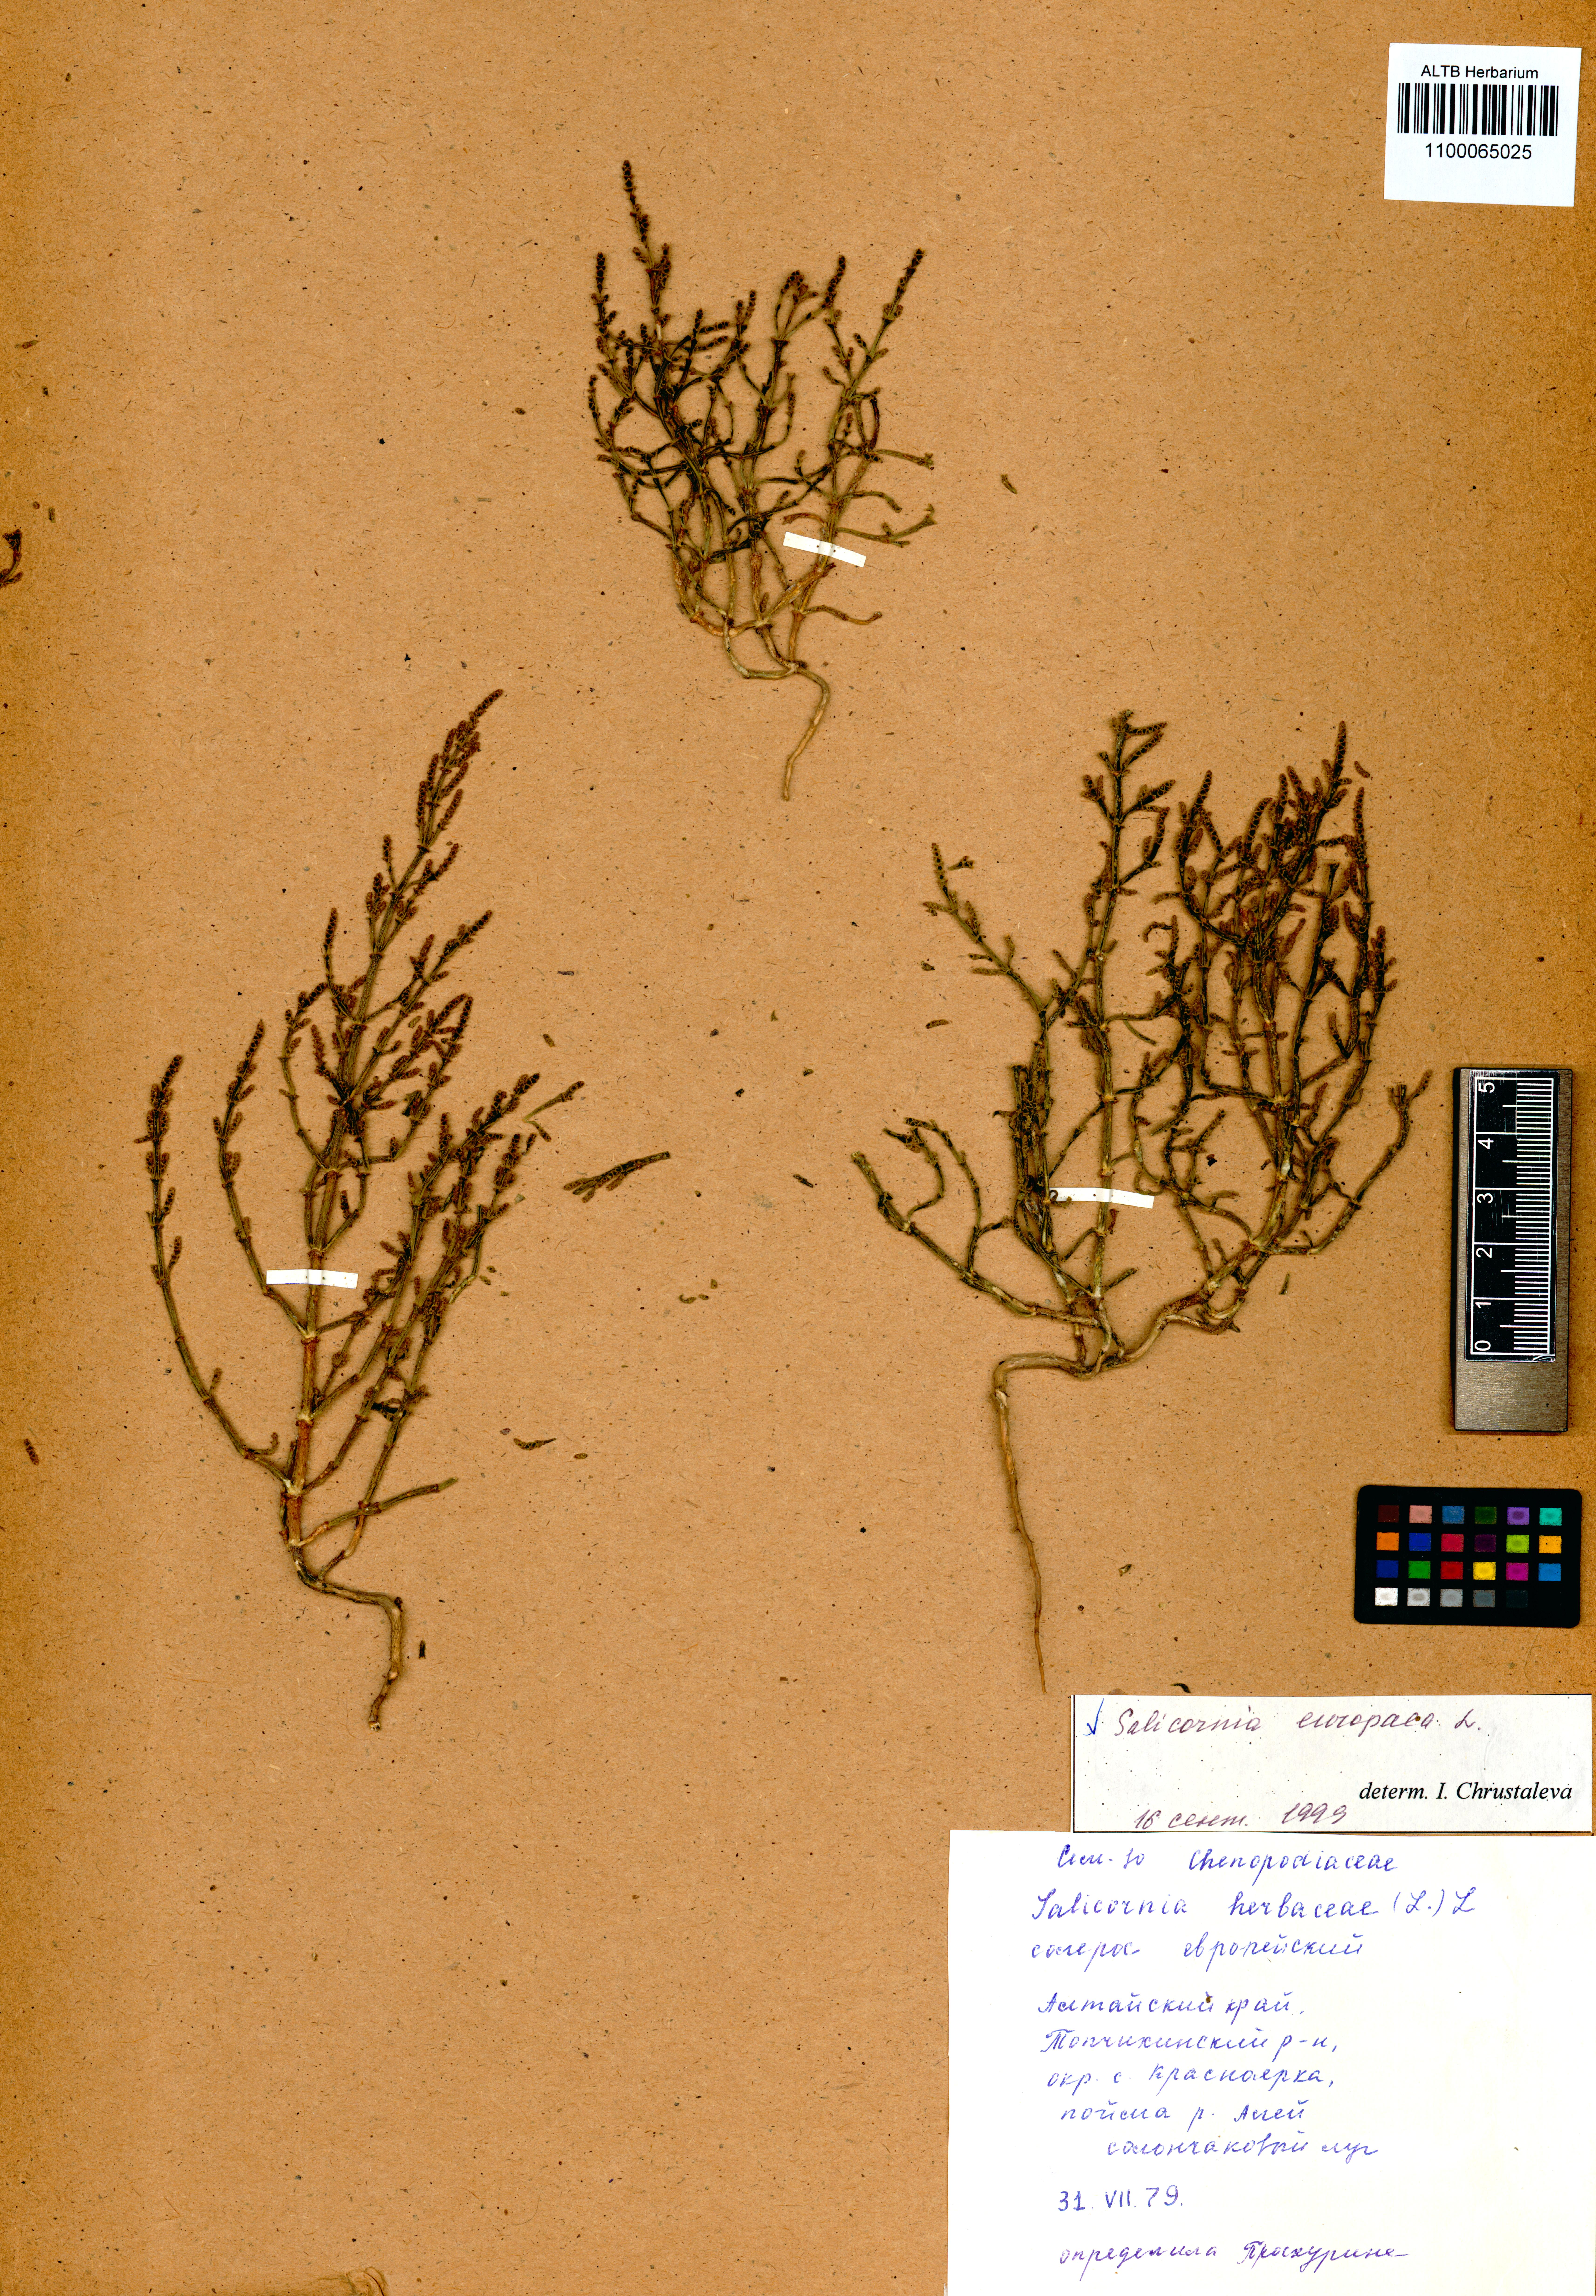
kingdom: Plantae
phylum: Tracheophyta
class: Magnoliopsida
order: Caryophyllales
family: Amaranthaceae
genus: Salicornia
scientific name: Salicornia europaea
